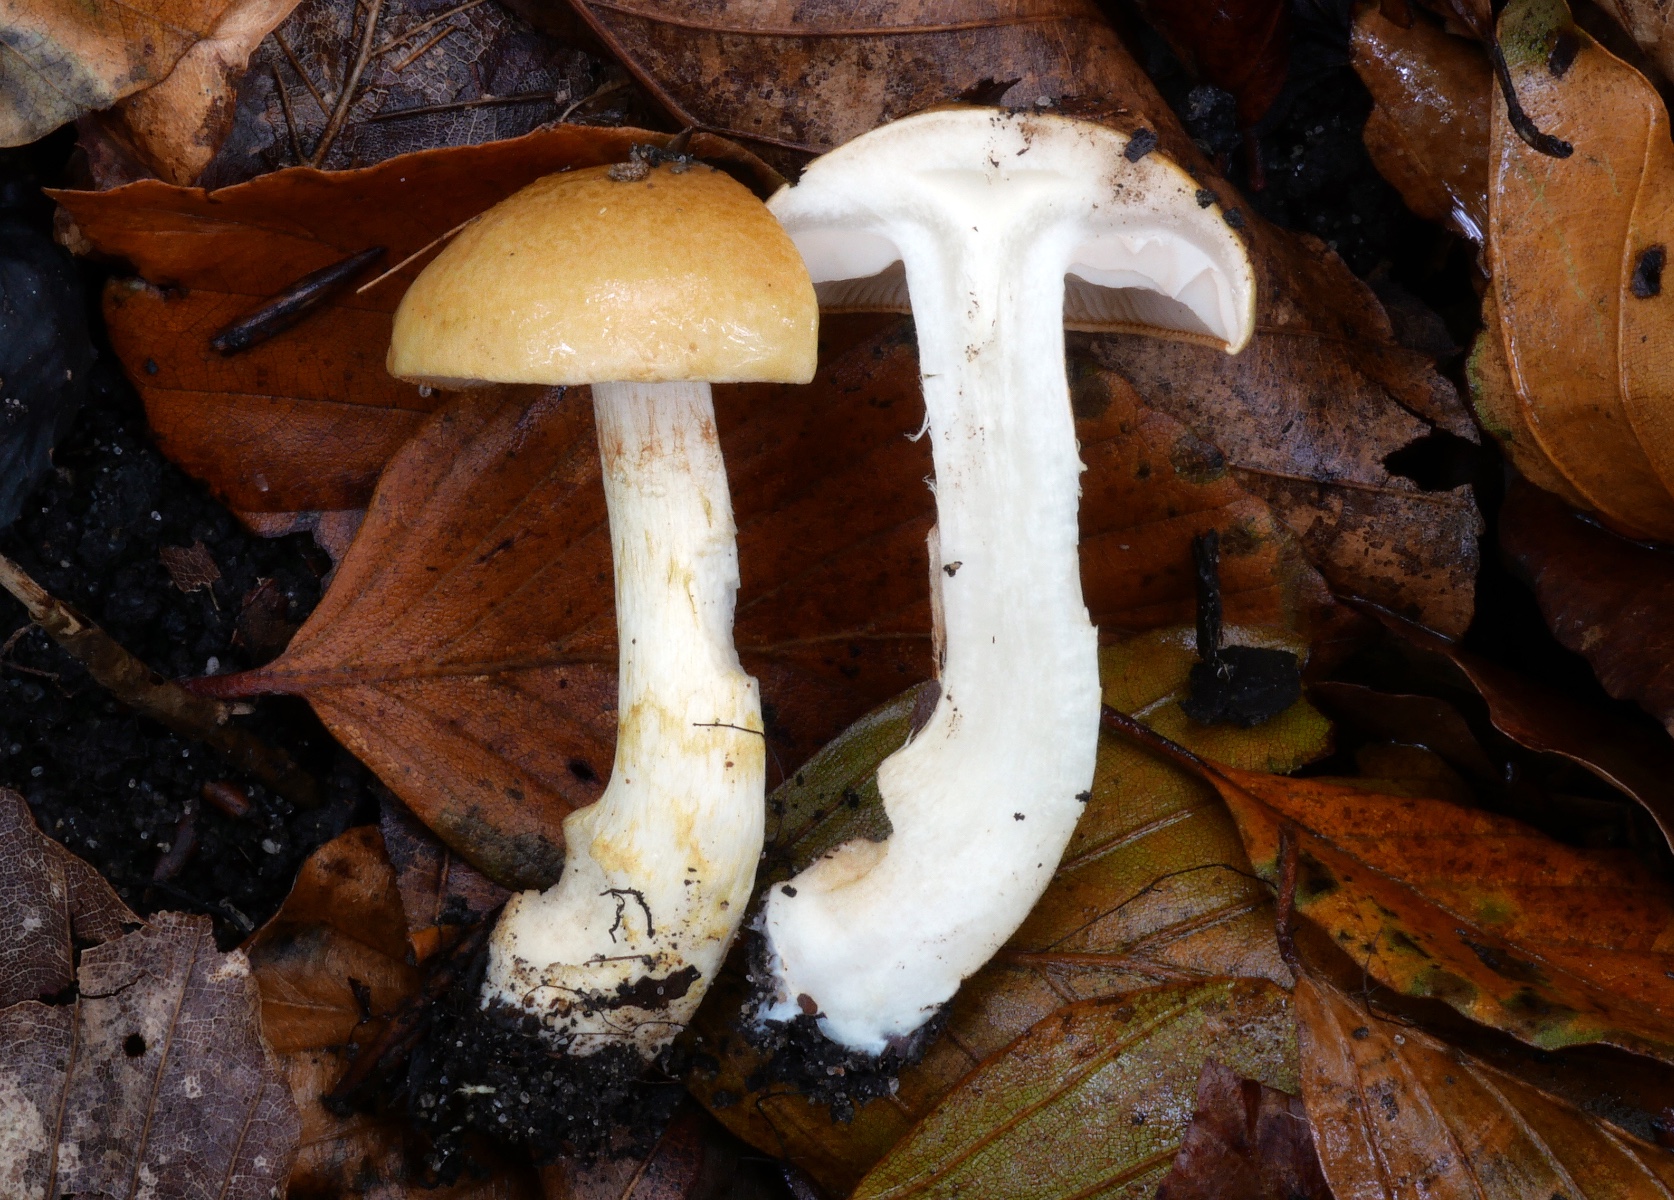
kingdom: Fungi
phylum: Basidiomycota
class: Agaricomycetes
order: Agaricales
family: Cortinariaceae
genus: Phlegmacium
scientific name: Phlegmacium cliduchus
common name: majs-slørhat
